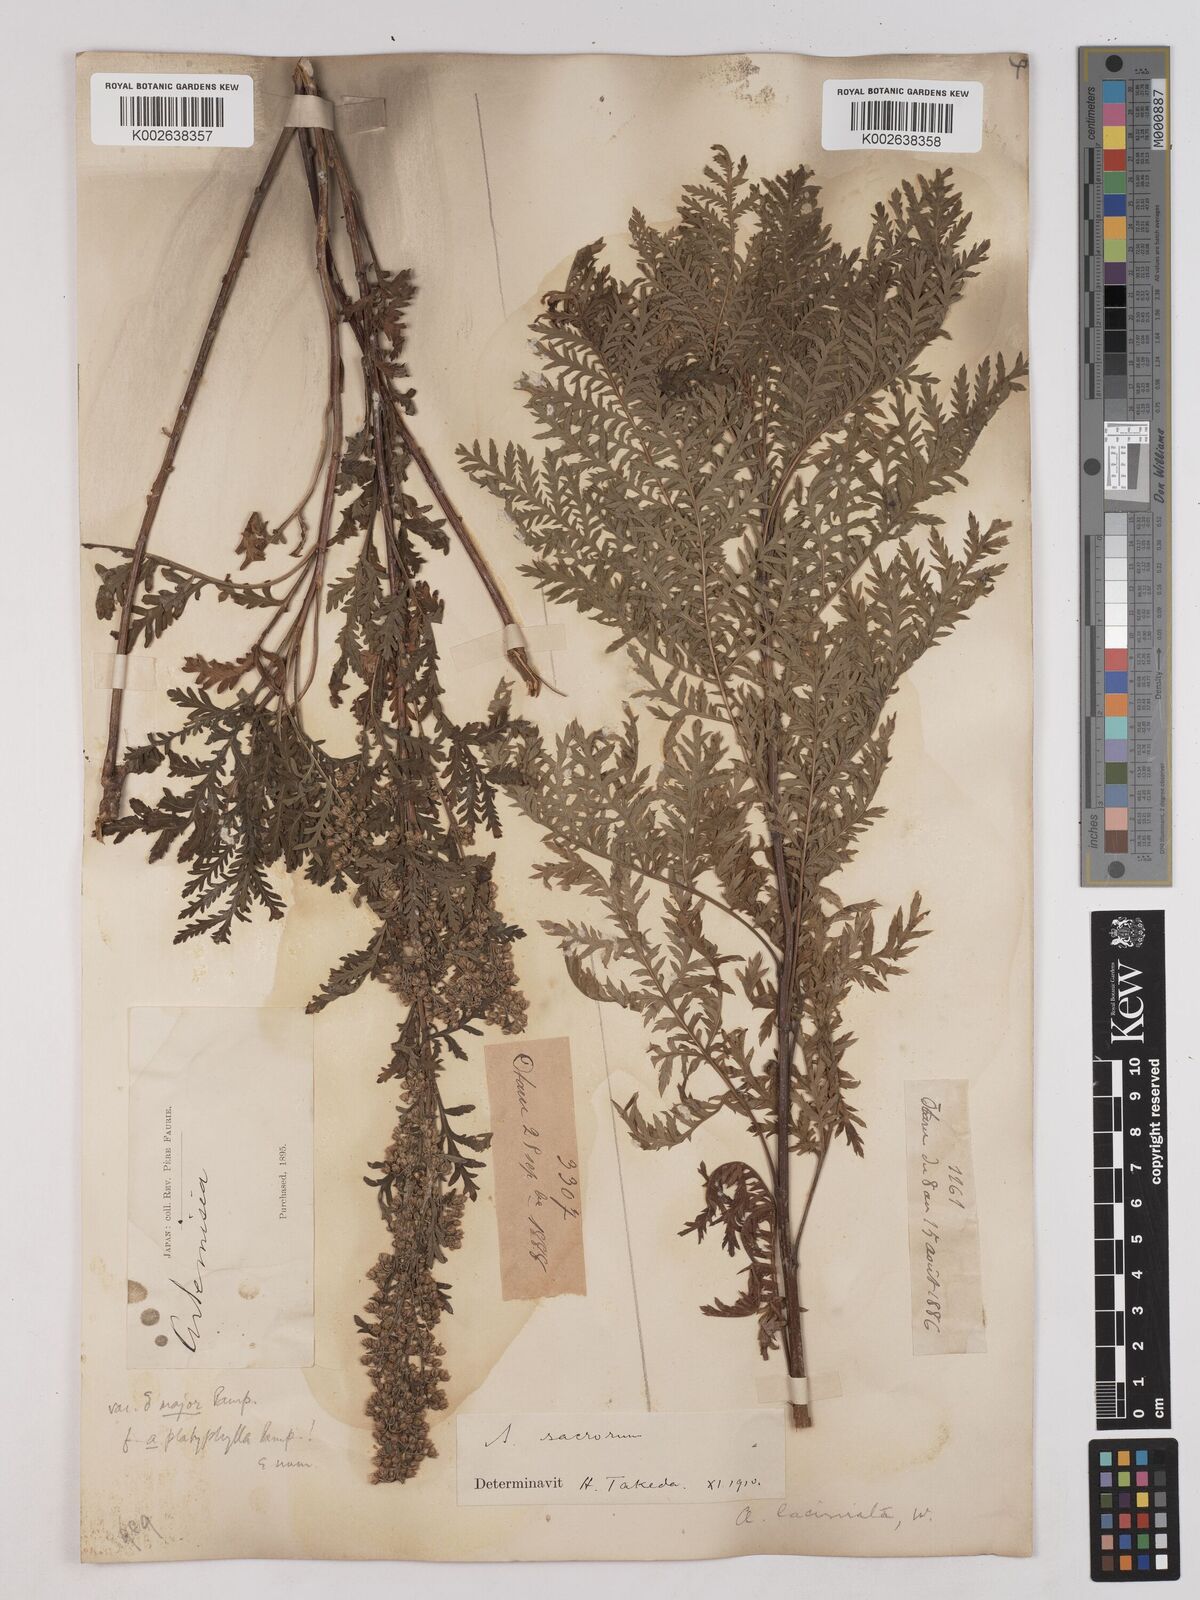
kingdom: Plantae
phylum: Tracheophyta
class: Magnoliopsida
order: Asterales
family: Asteraceae
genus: Artemisia
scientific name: Artemisia gmelinii
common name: Gmelin's wormwood
